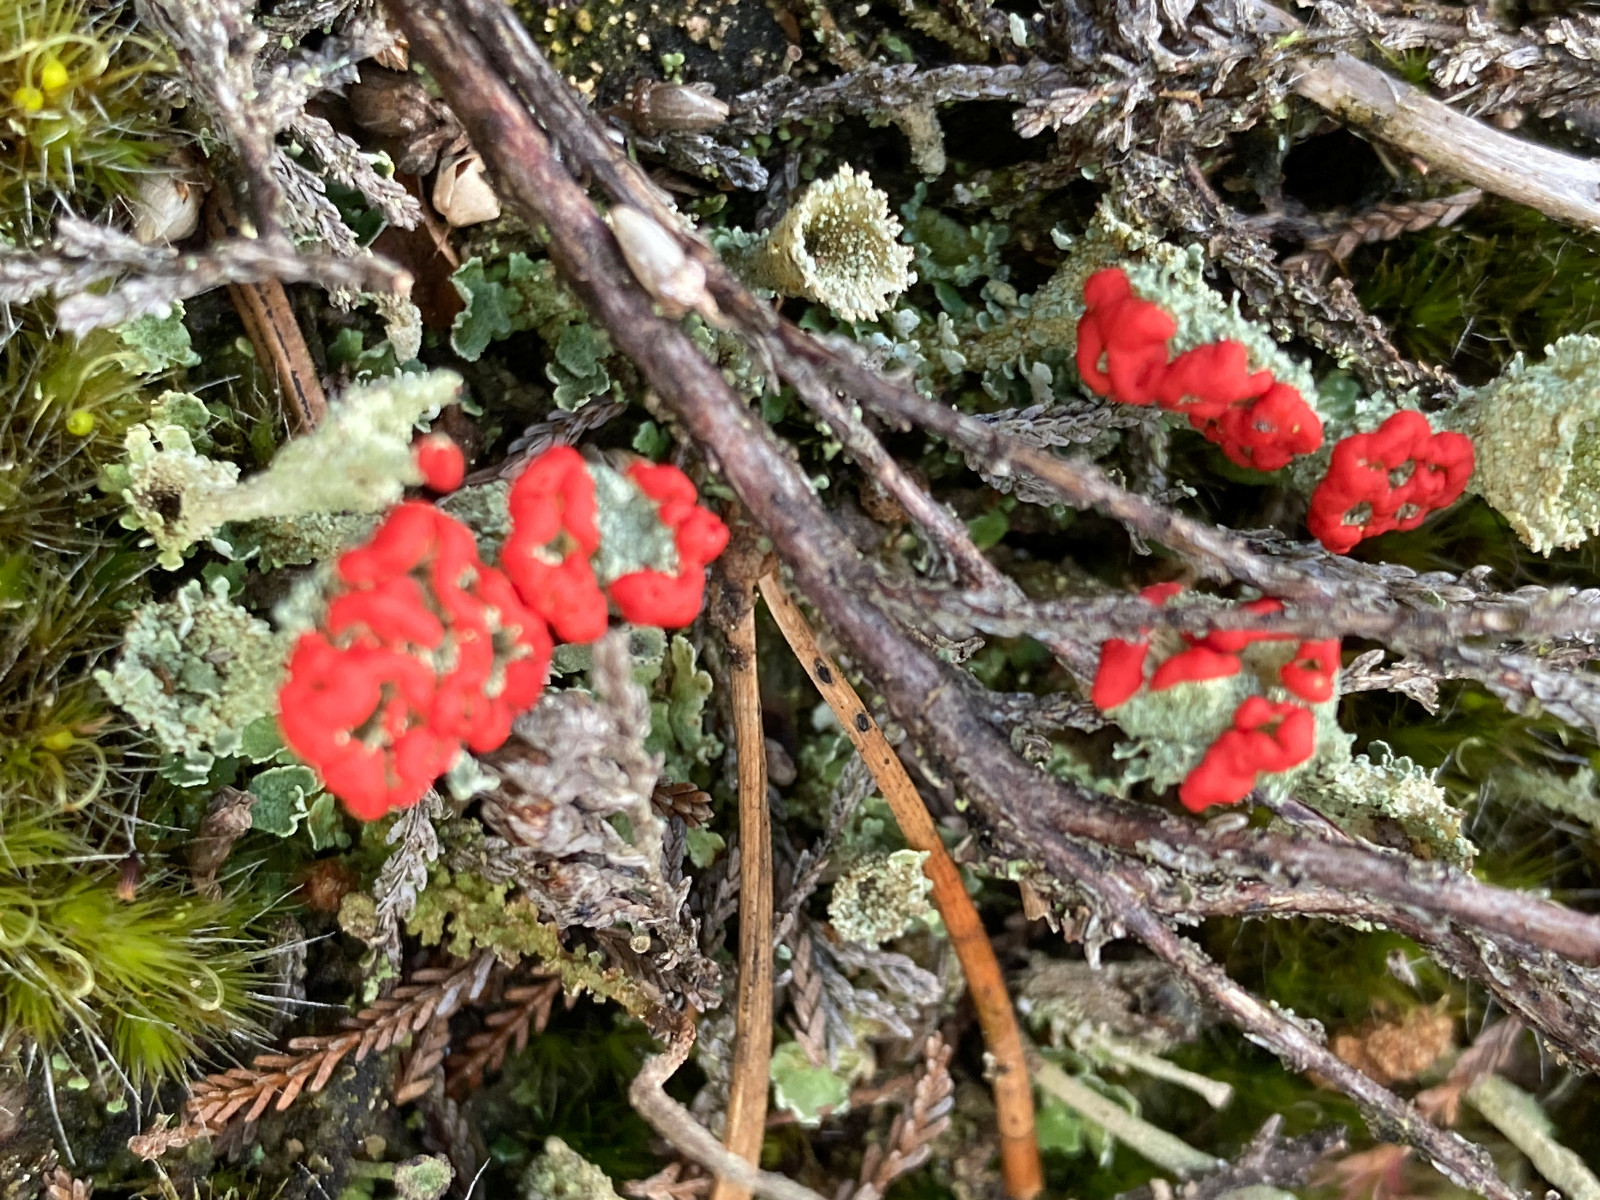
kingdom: Fungi
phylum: Ascomycota
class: Lecanoromycetes
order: Lecanorales
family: Cladoniaceae
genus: Cladonia
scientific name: Cladonia diversa
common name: rød bægerlav
